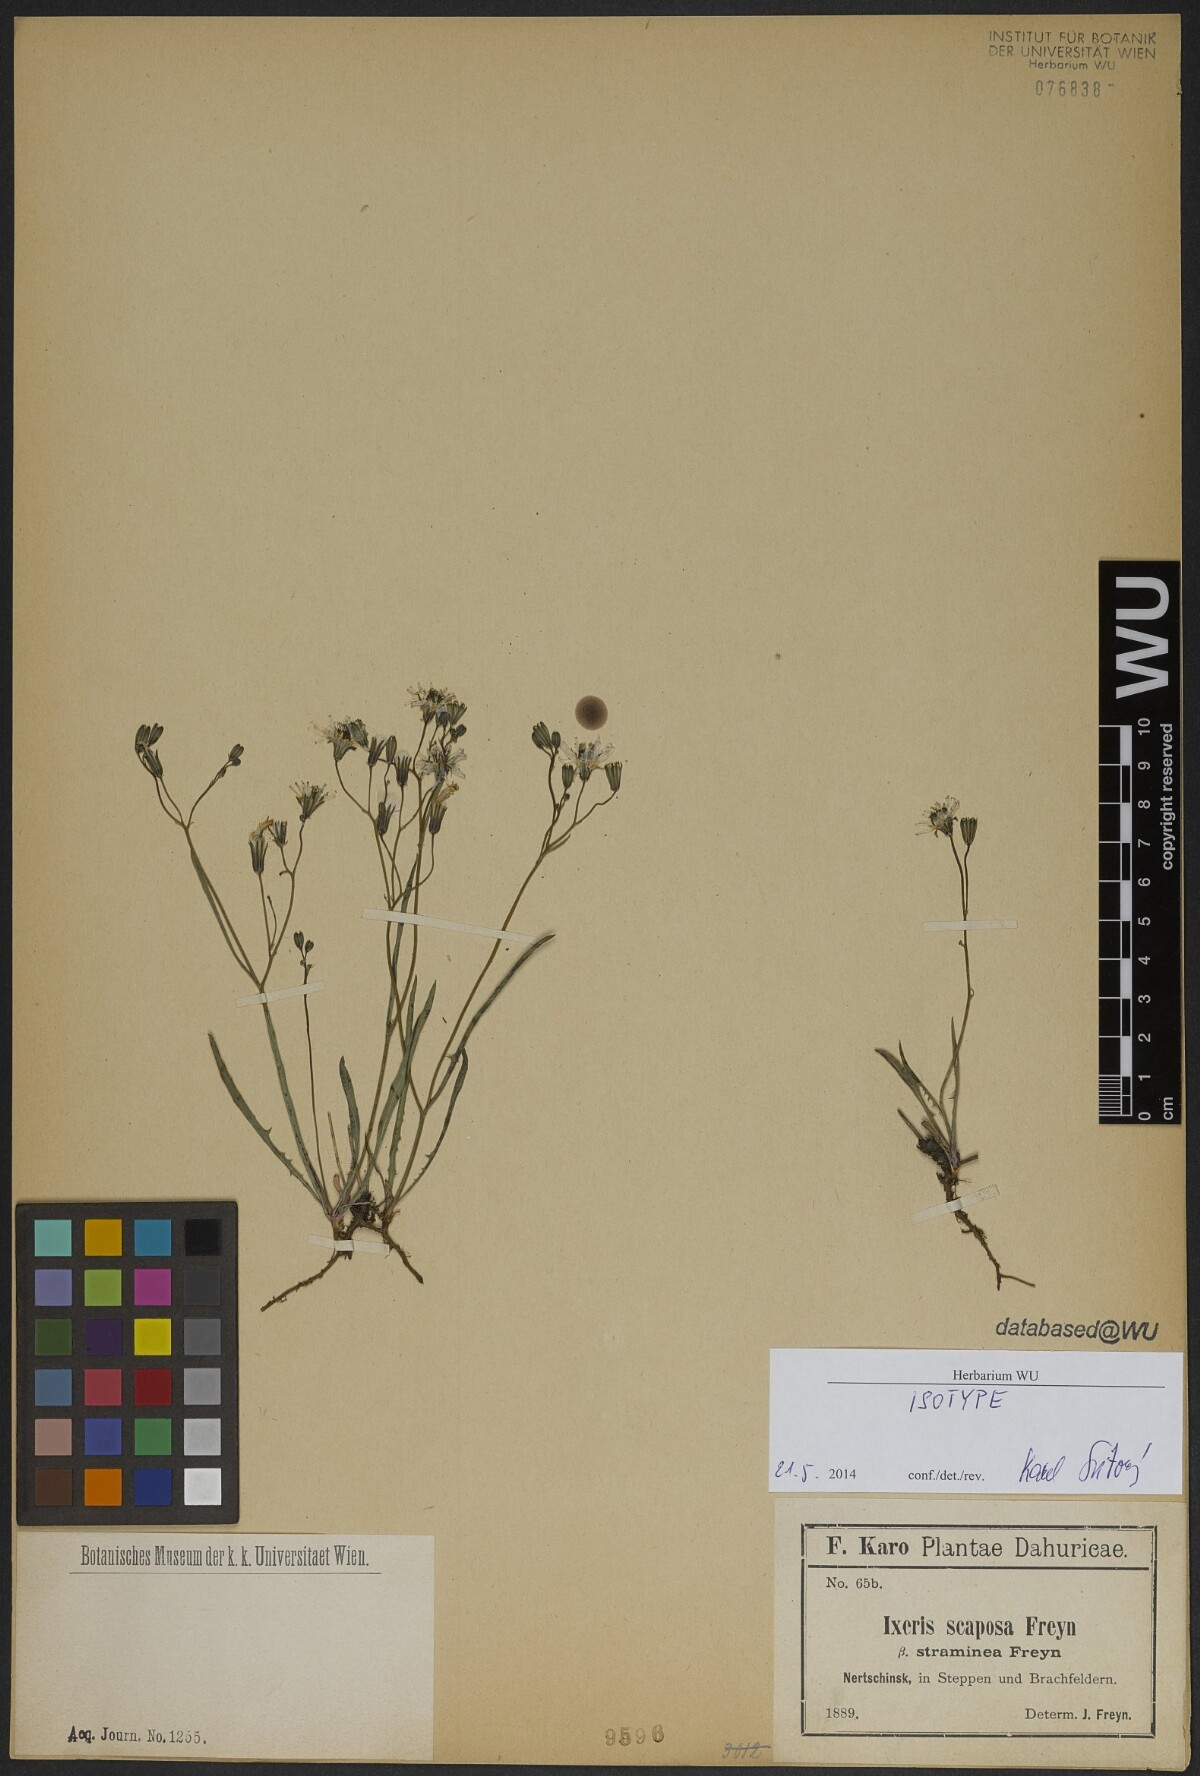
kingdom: Plantae
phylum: Tracheophyta
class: Magnoliopsida
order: Asterales
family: Asteraceae
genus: Ixeris
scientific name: Ixeris chinensis
